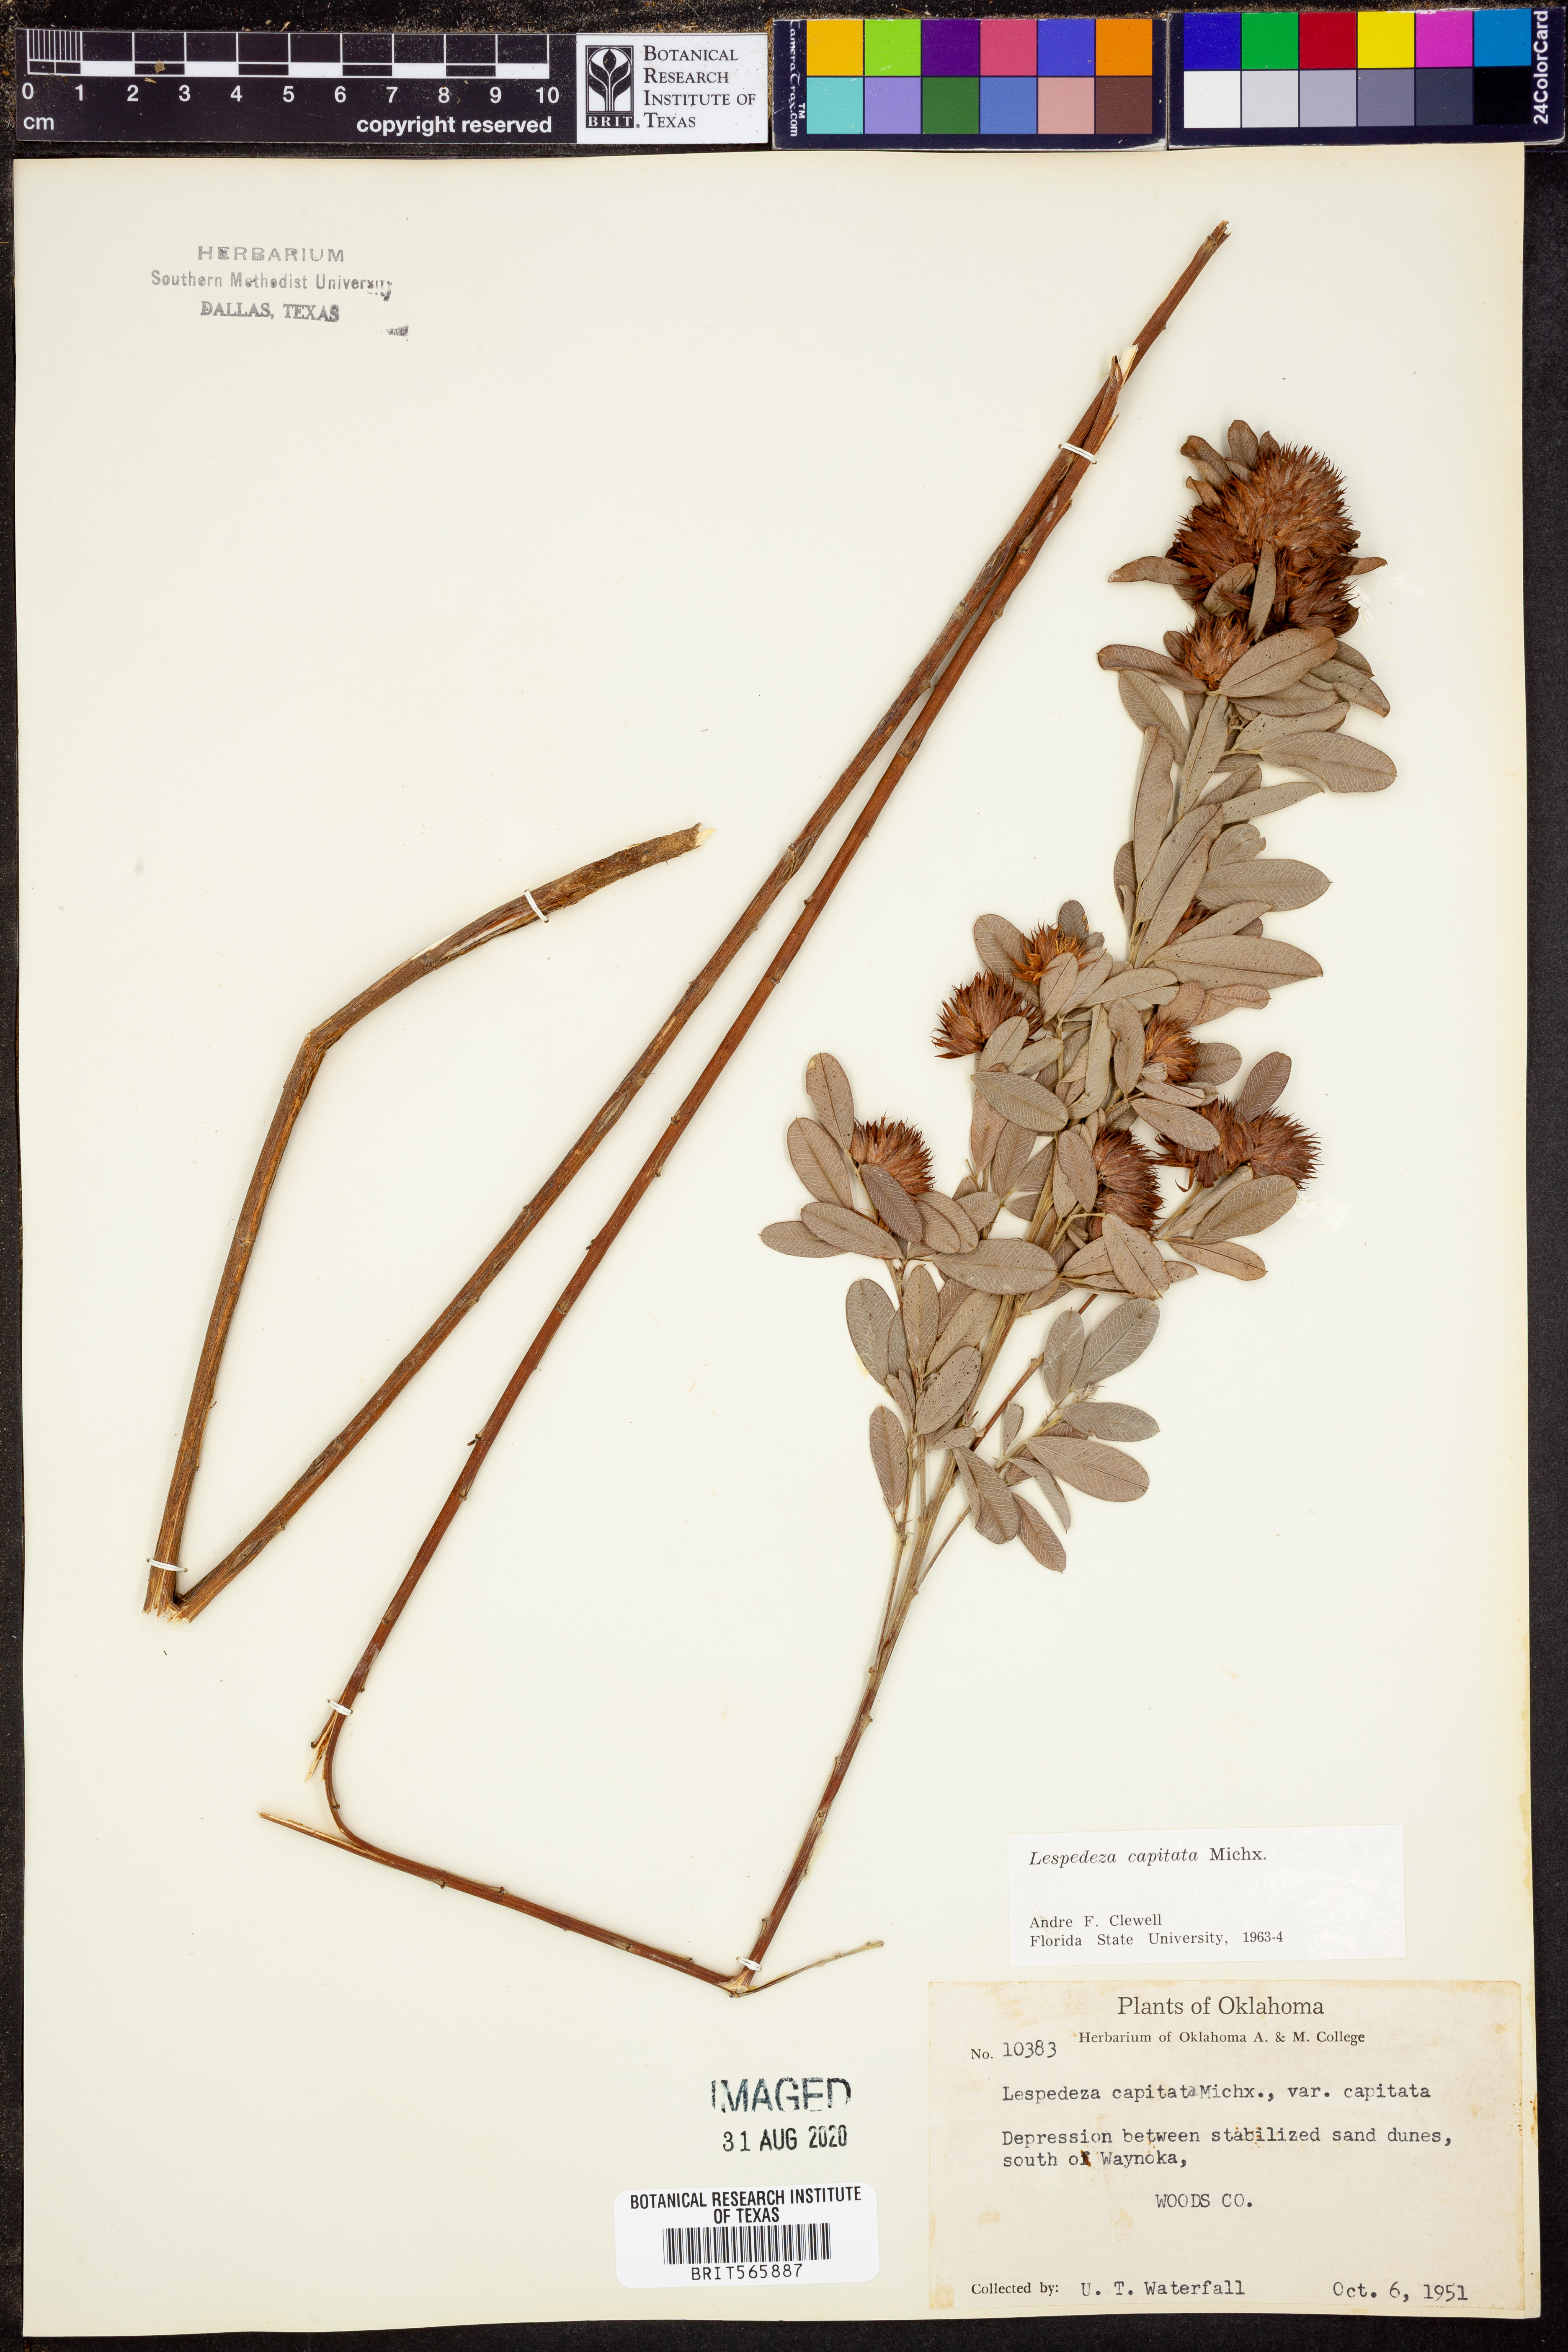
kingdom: Plantae
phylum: Tracheophyta
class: Magnoliopsida
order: Fabales
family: Fabaceae
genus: Lespedeza
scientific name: Lespedeza capitata
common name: Dusty clover
